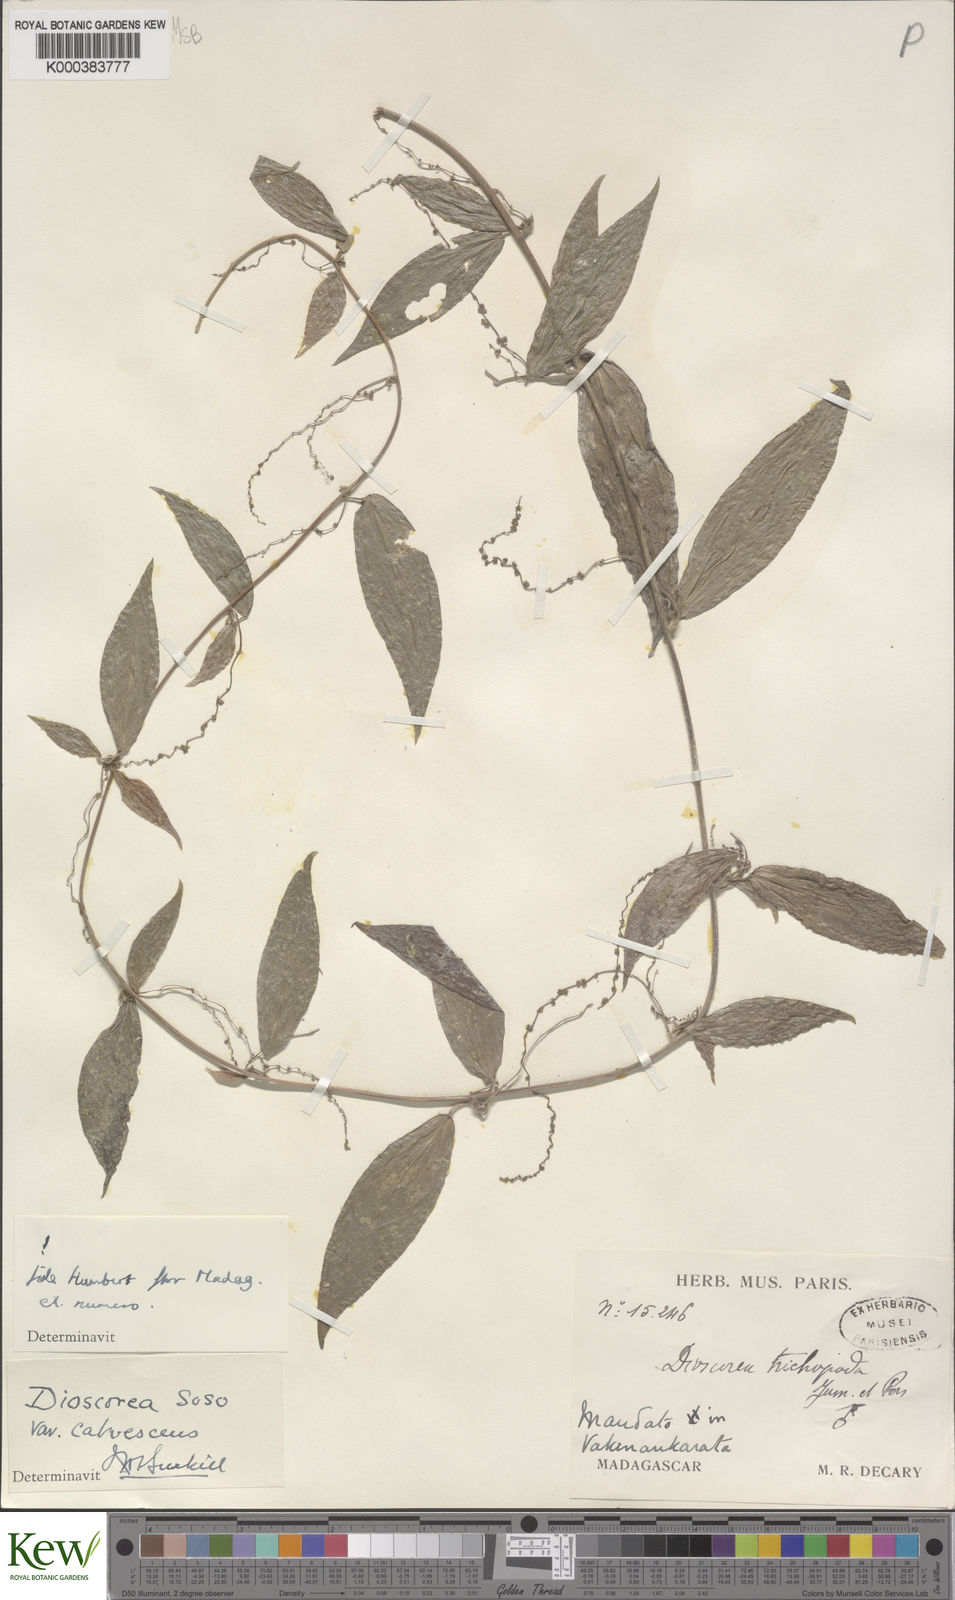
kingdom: Plantae
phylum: Tracheophyta
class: Liliopsida
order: Dioscoreales
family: Dioscoreaceae
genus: Dioscorea
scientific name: Dioscorea
